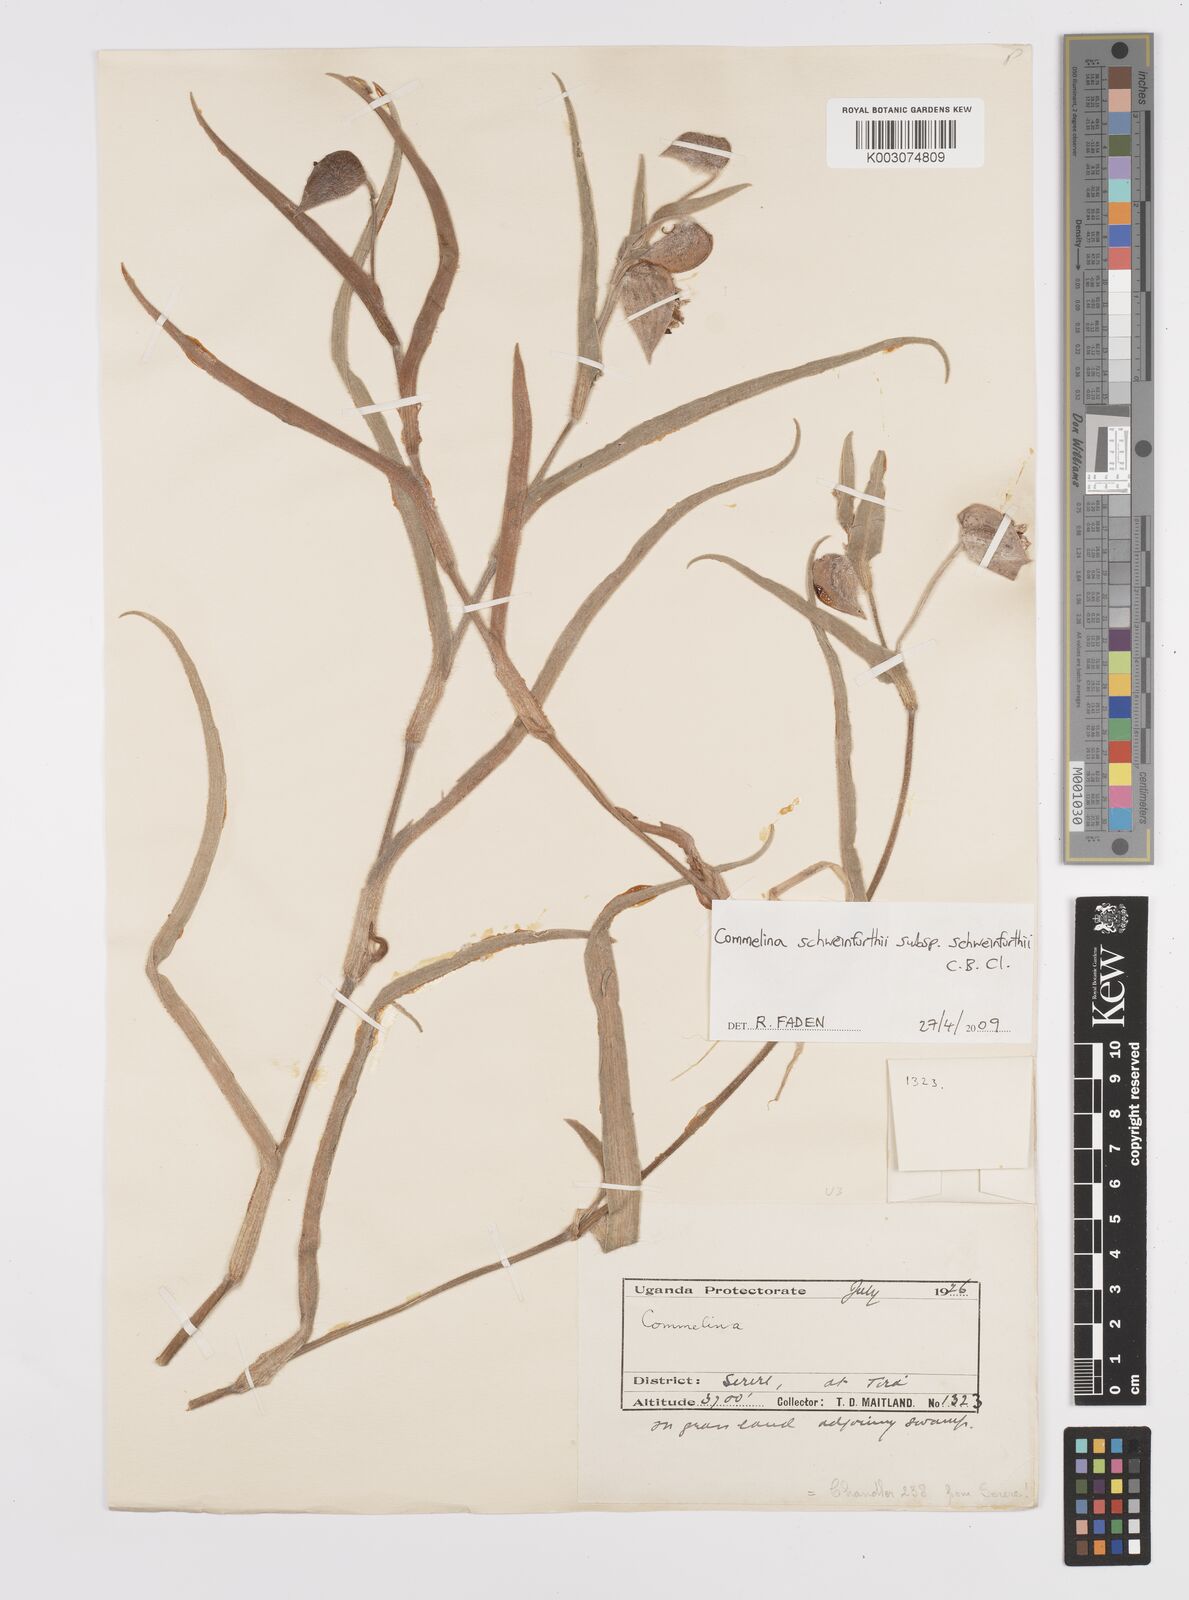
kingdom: Plantae
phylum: Tracheophyta
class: Liliopsida
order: Commelinales
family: Commelinaceae
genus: Commelina
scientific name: Commelina schweinfurthii
